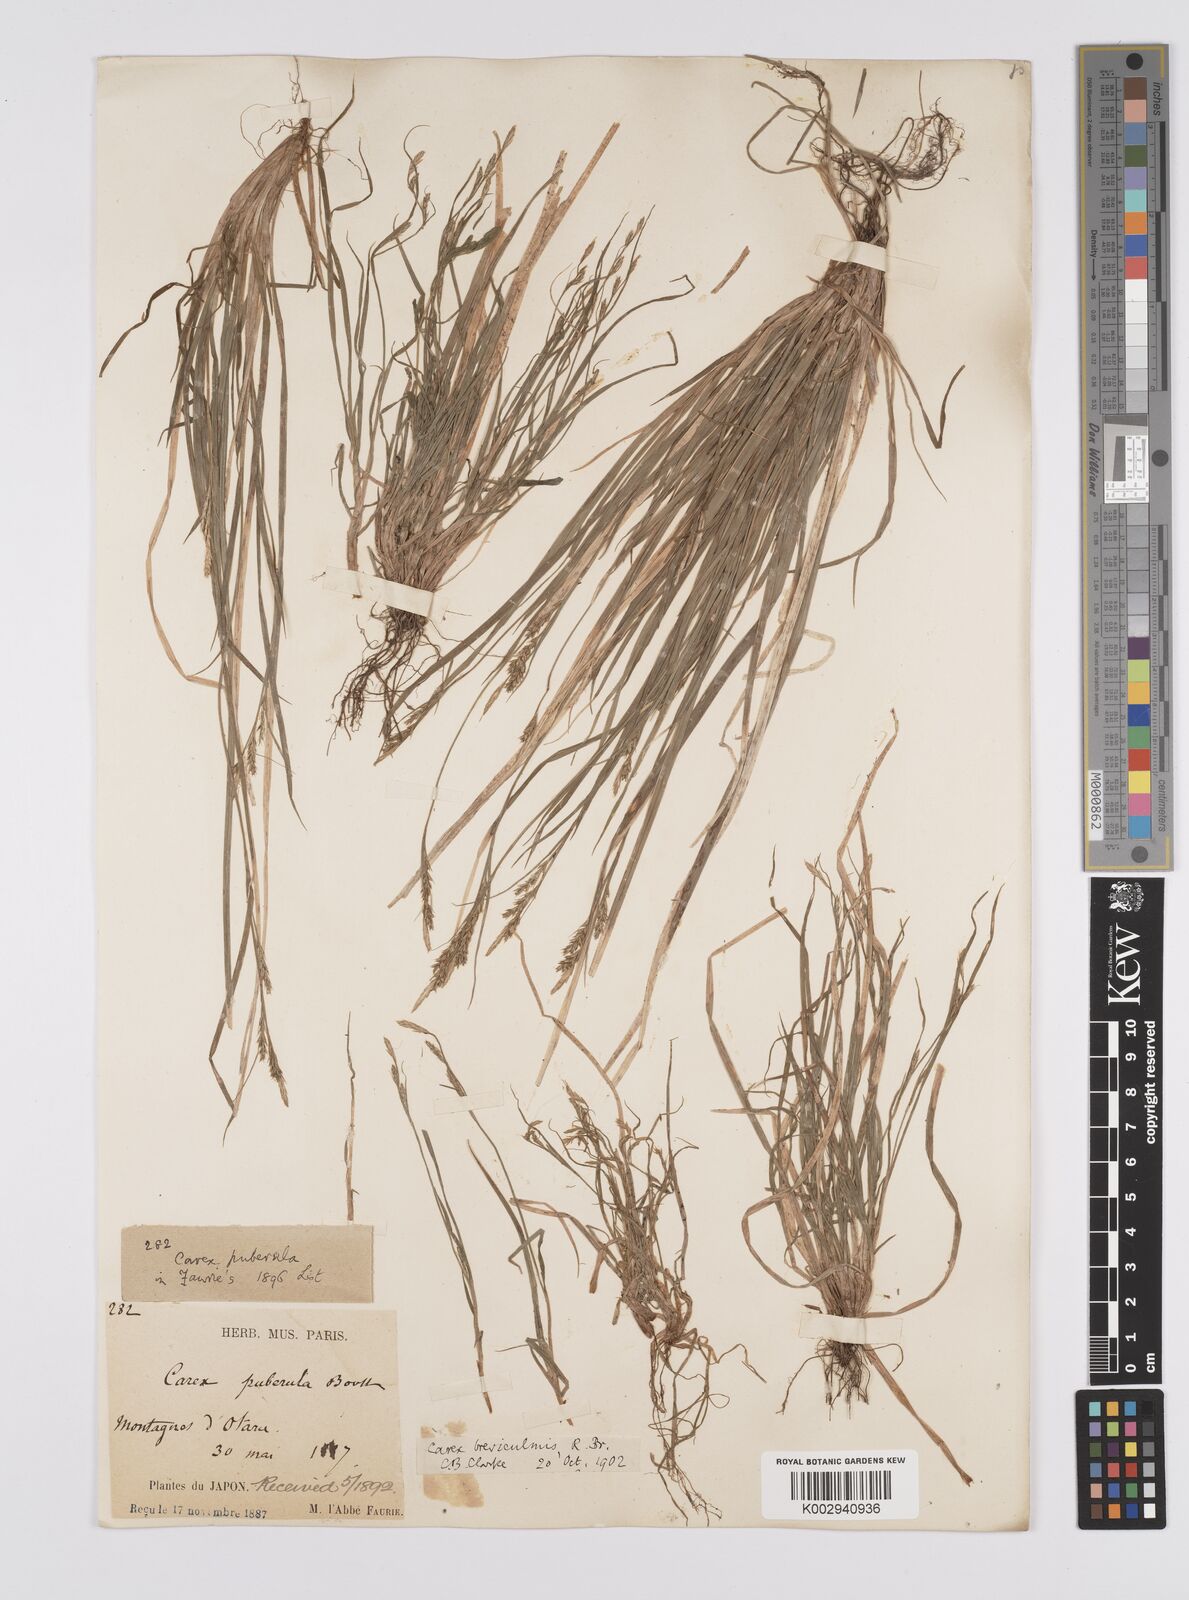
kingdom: Plantae
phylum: Tracheophyta
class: Liliopsida
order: Poales
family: Cyperaceae
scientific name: Cyperaceae
